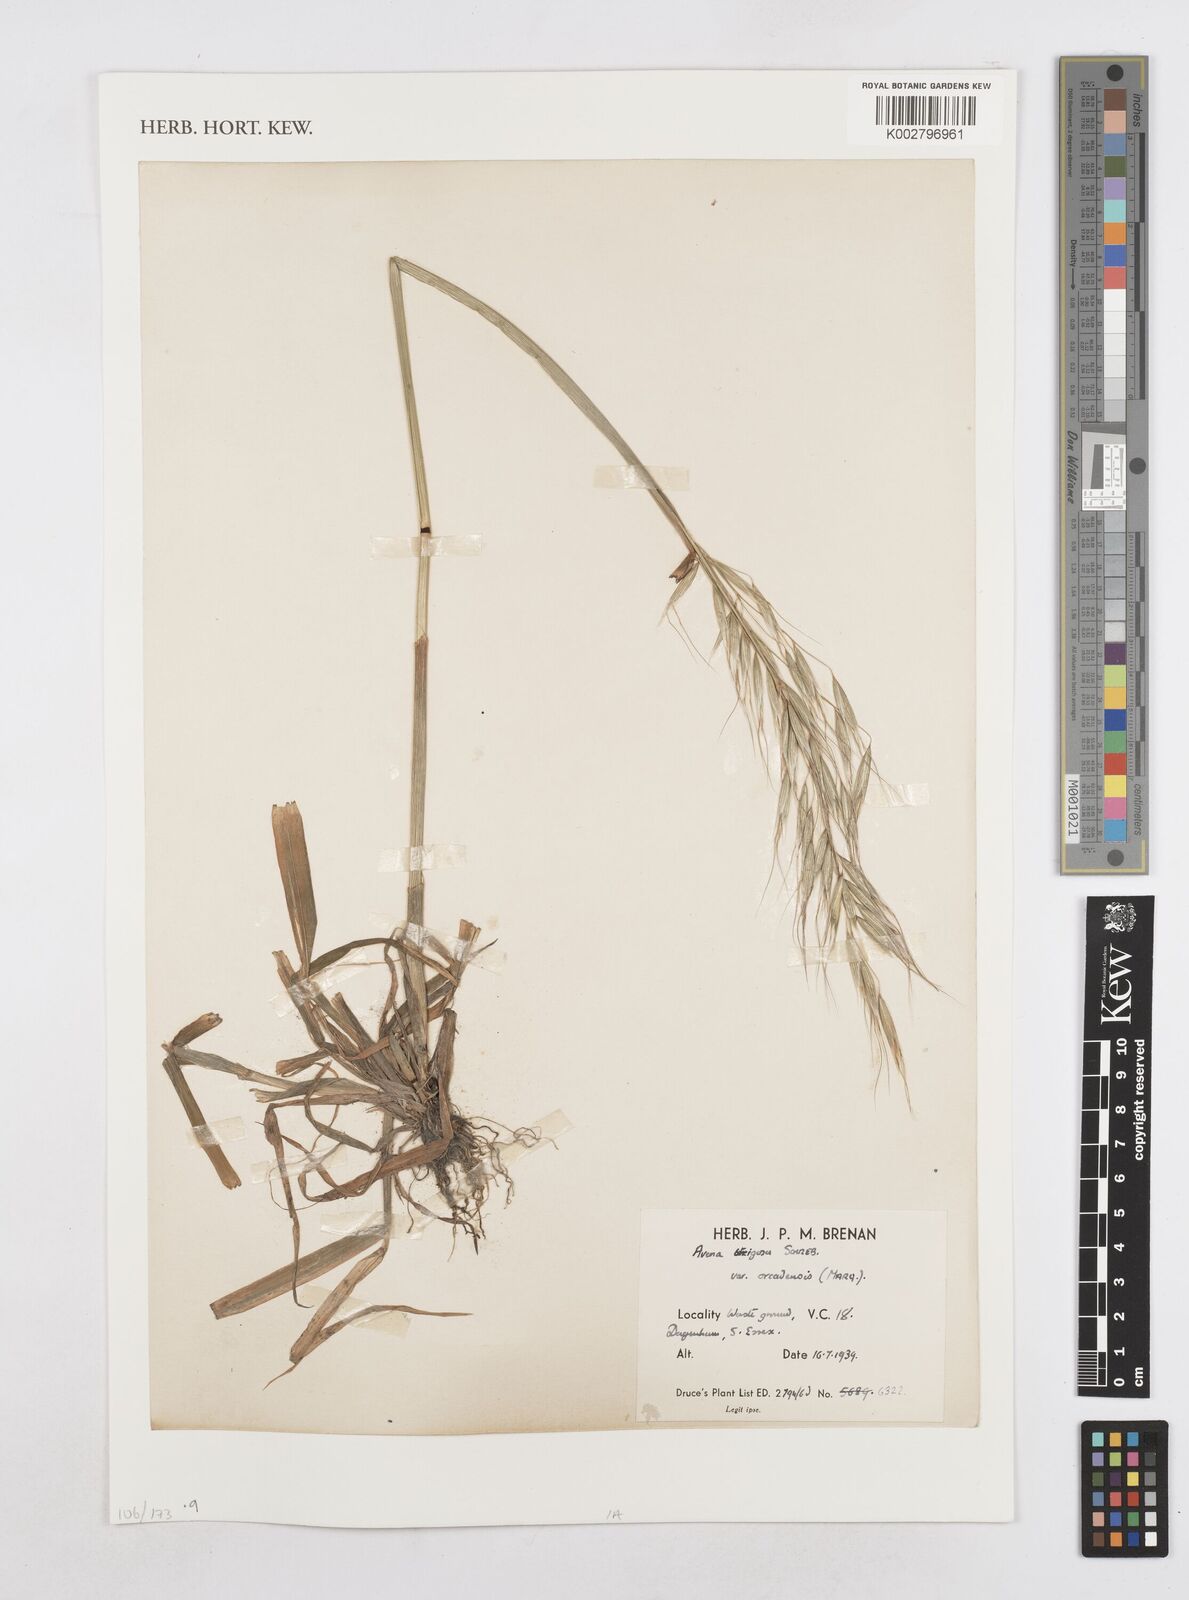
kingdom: Plantae
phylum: Tracheophyta
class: Liliopsida
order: Poales
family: Poaceae
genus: Avena
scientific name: Avena strigosa
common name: Bristle oat
